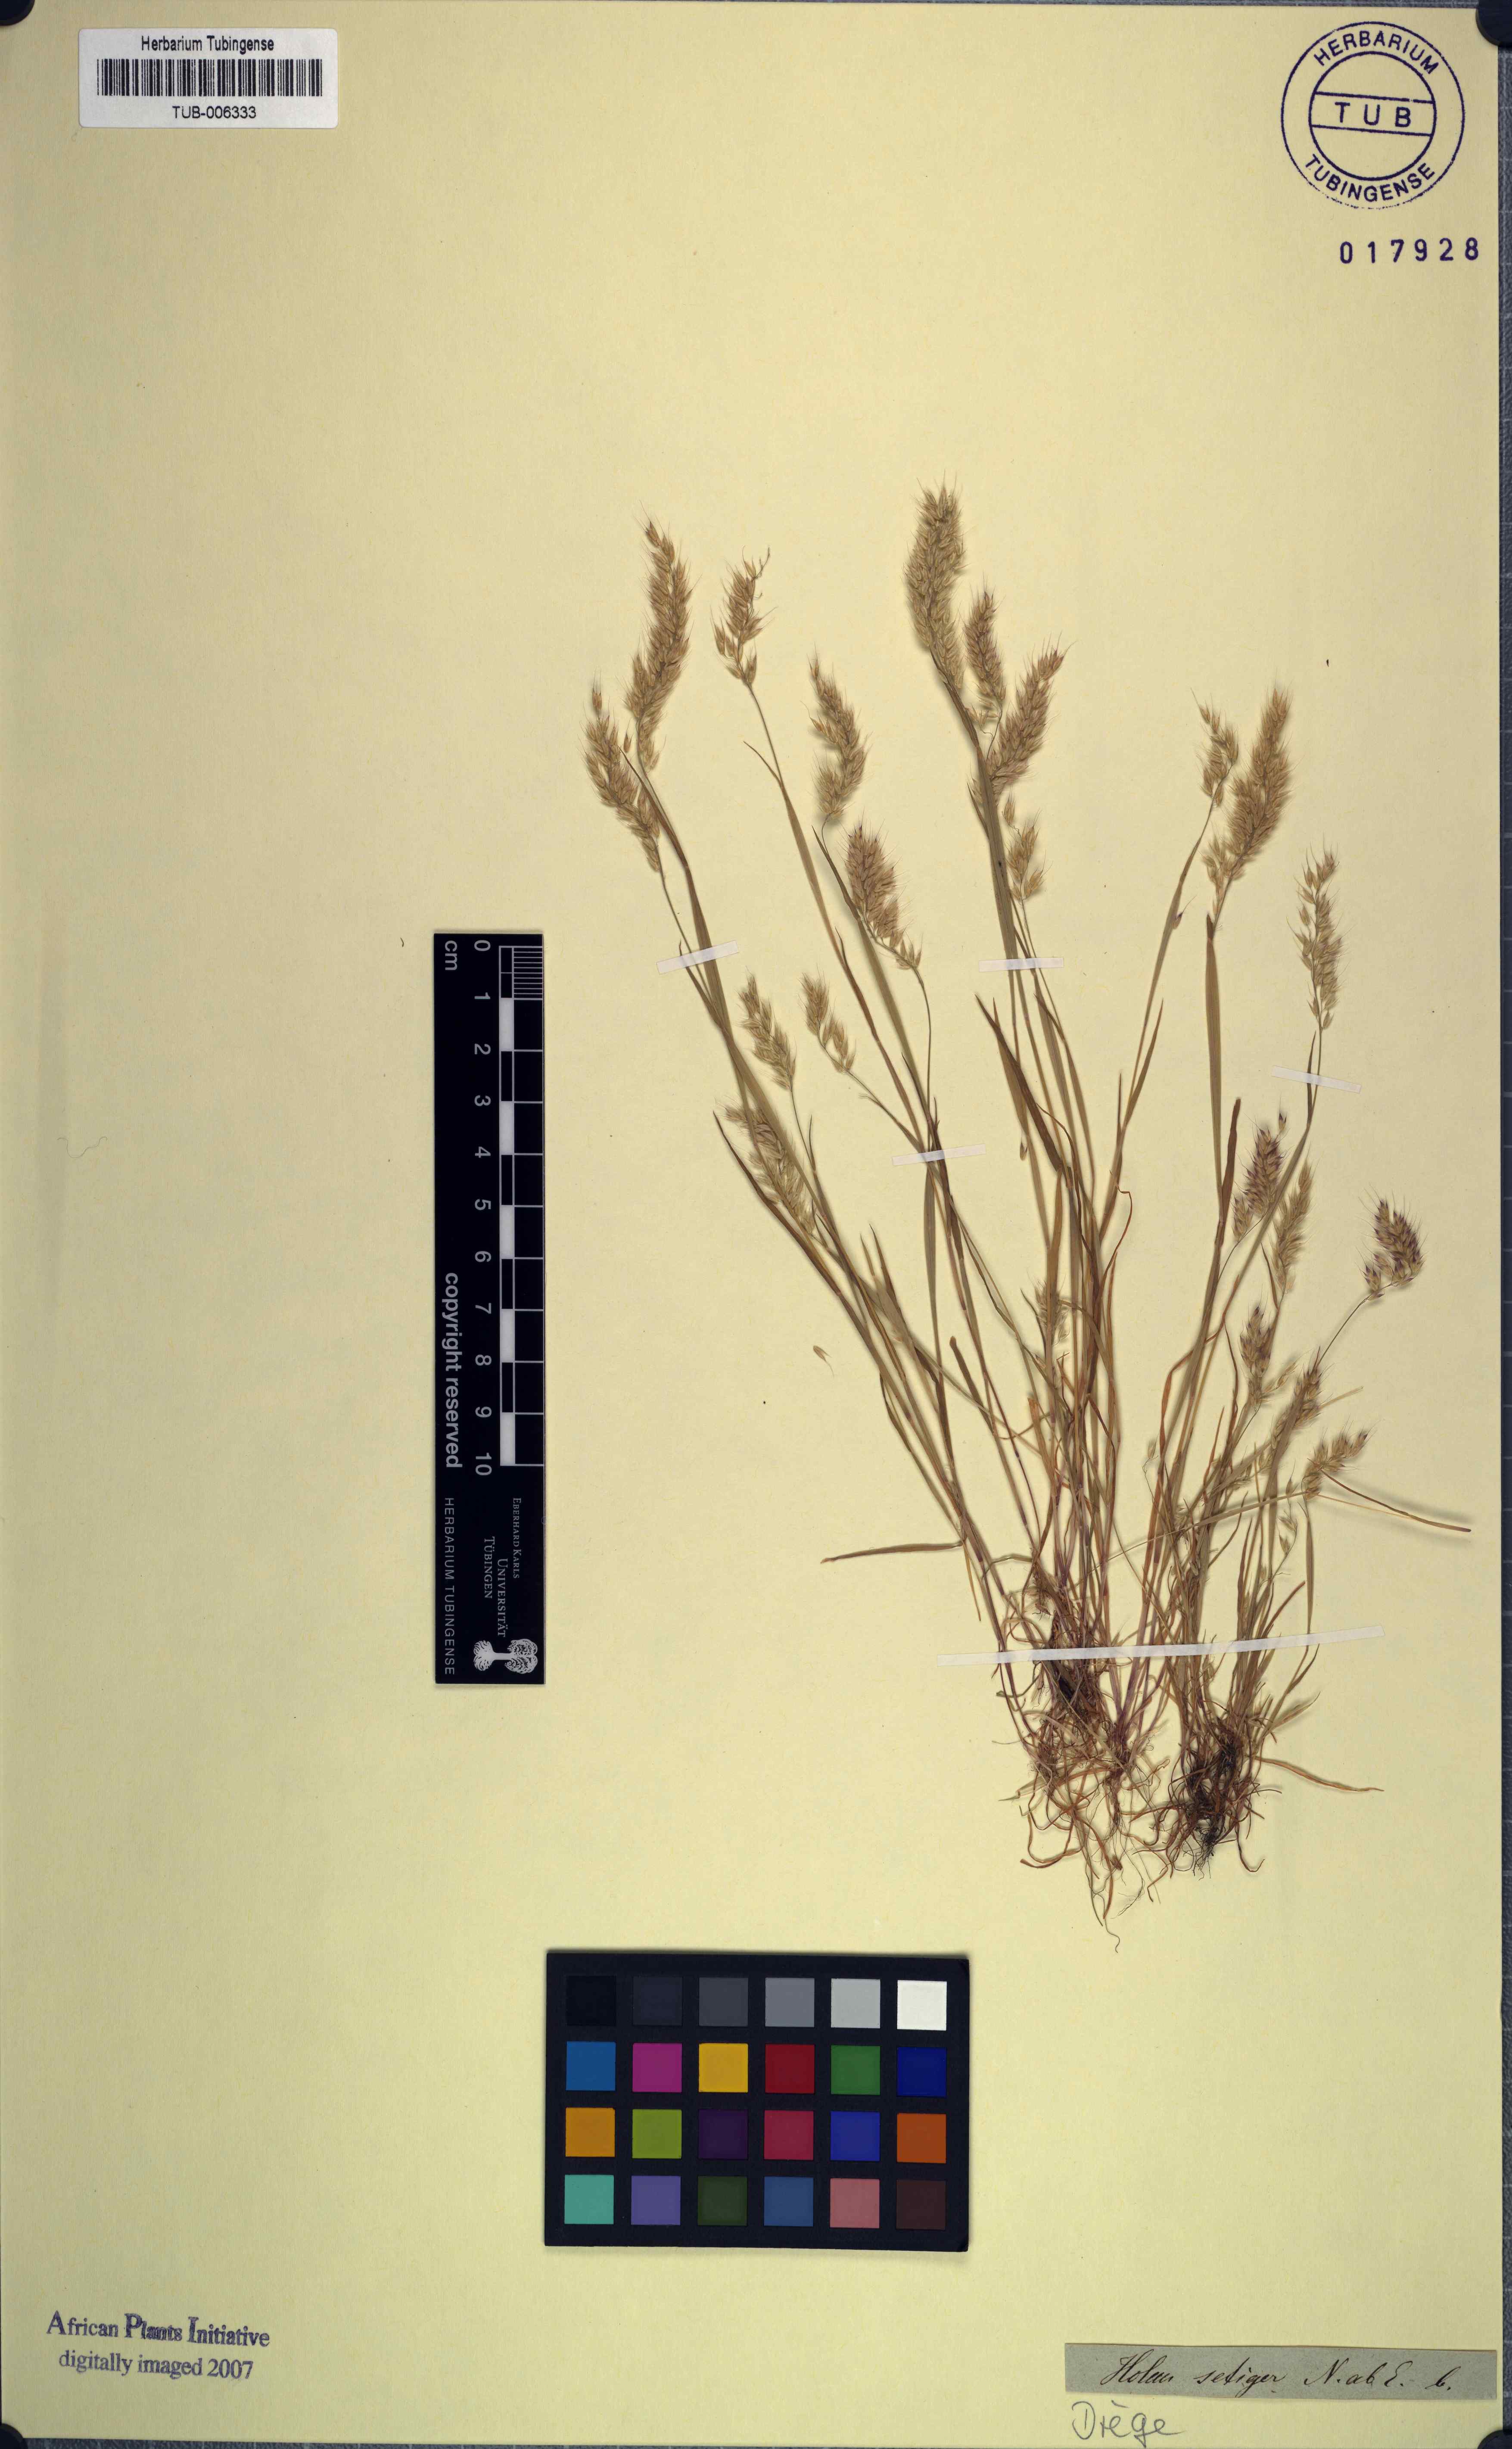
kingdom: Plantae
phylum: Tracheophyta
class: Liliopsida
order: Poales
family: Poaceae
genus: Holcus
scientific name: Holcus setiger
